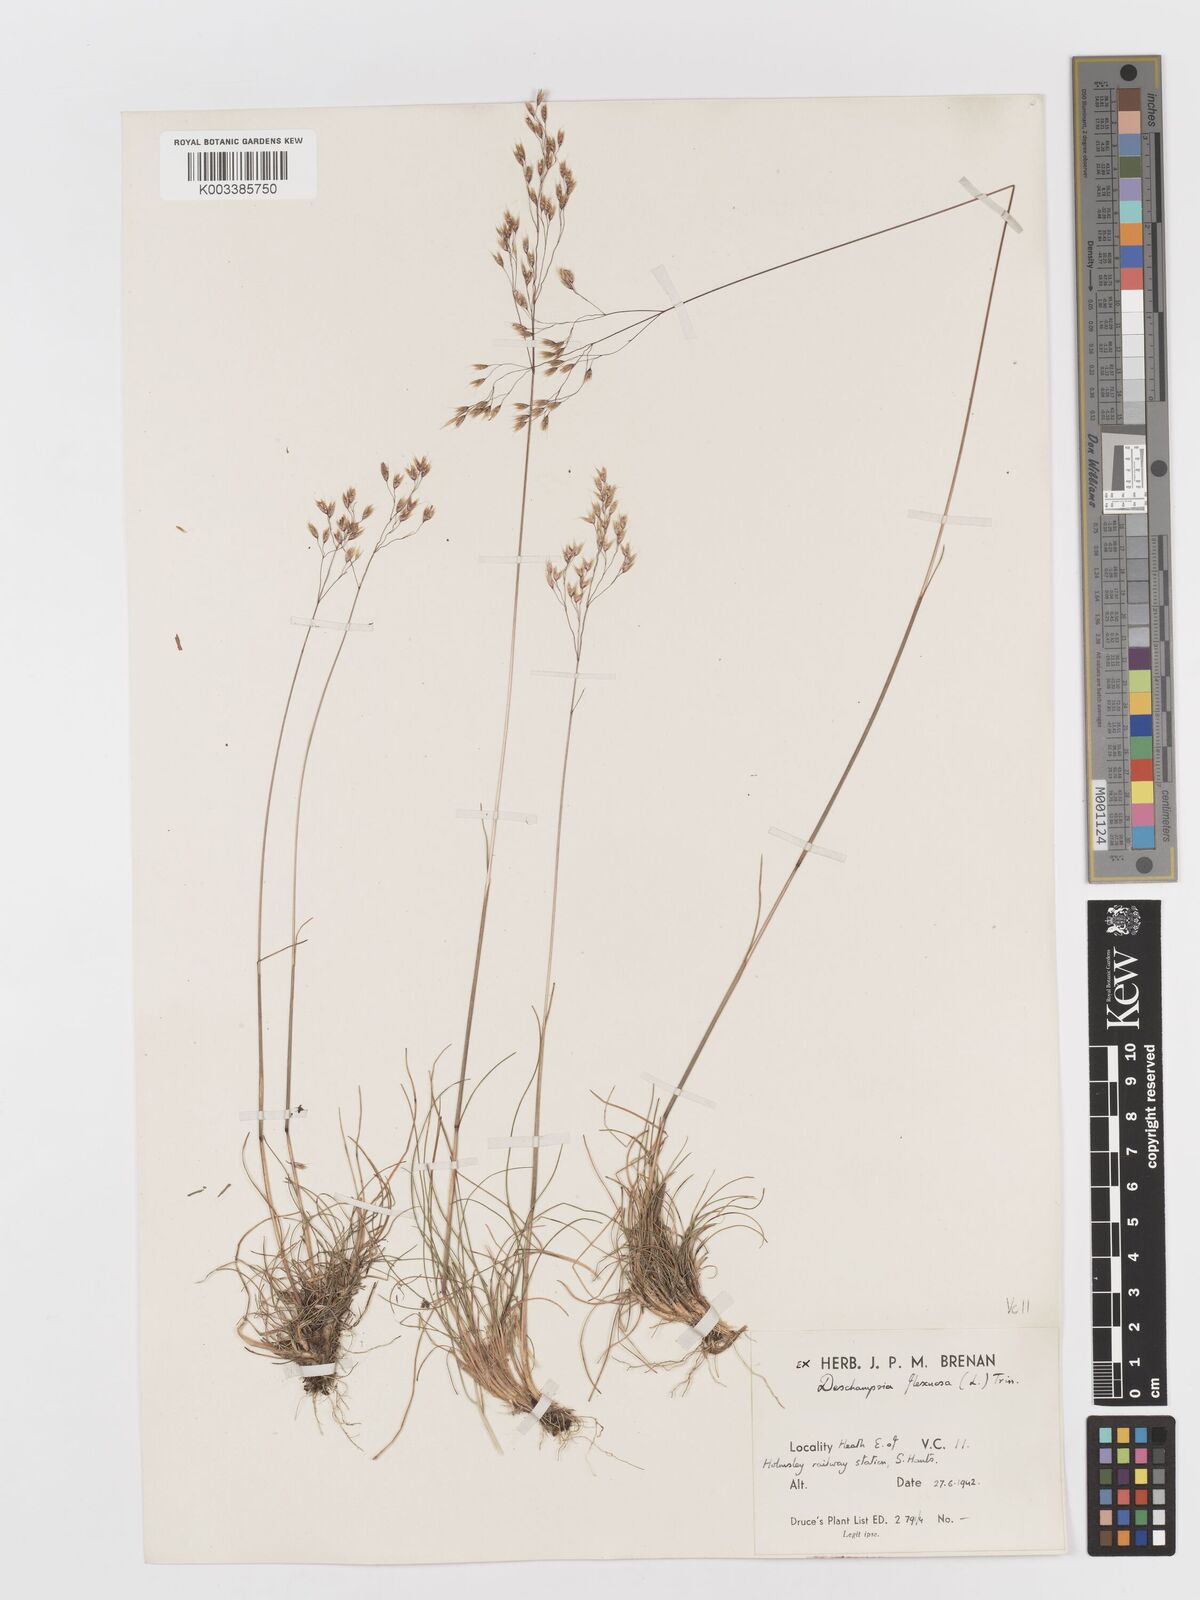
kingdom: Plantae
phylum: Tracheophyta
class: Liliopsida
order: Poales
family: Poaceae
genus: Avenella
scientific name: Avenella flexuosa
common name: Wavy hairgrass
